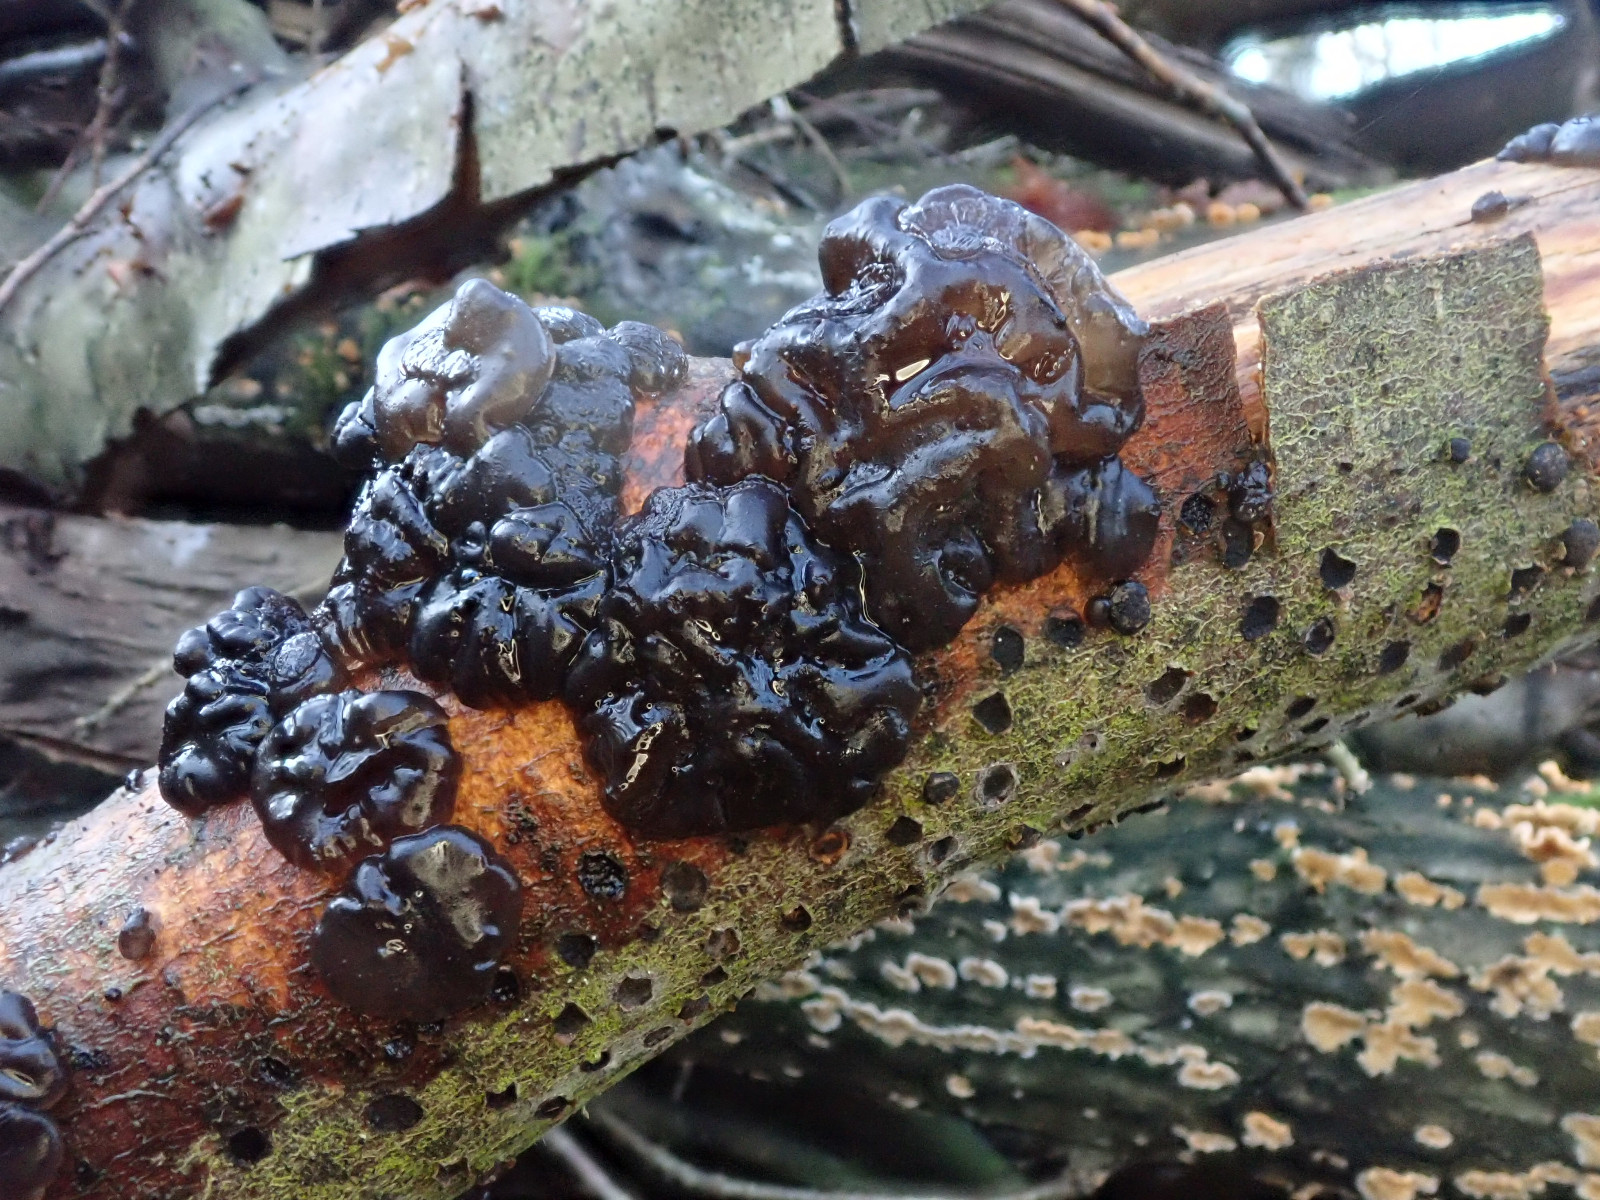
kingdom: Fungi
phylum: Basidiomycota
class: Agaricomycetes
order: Auriculariales
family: Auriculariaceae
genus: Exidia
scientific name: Exidia nigricans
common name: almindelig bævretop
